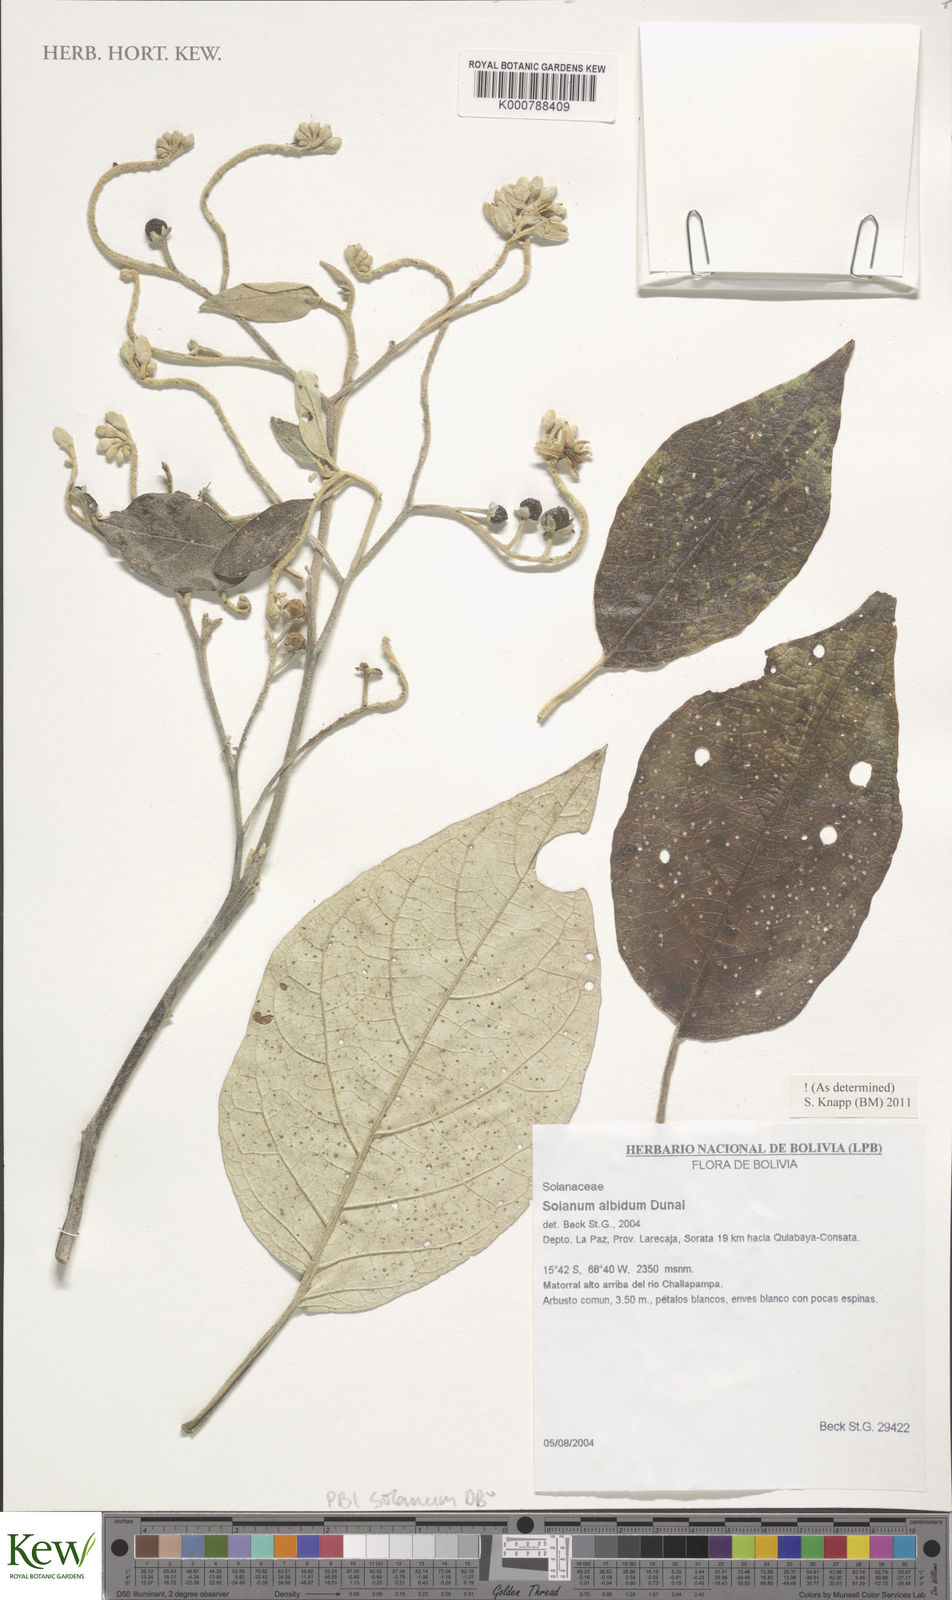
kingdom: Plantae
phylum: Tracheophyta
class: Magnoliopsida
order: Solanales
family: Solanaceae
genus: Solanum
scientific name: Solanum albidum
